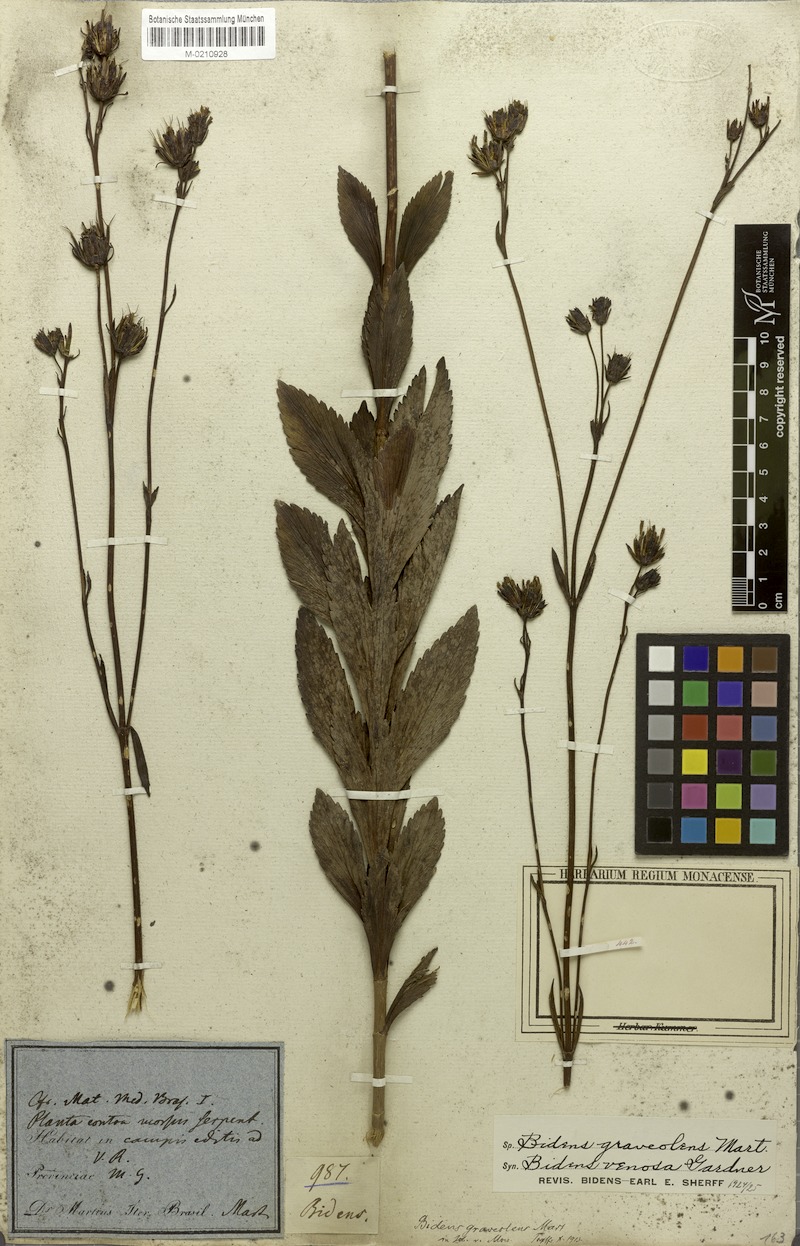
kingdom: Plantae
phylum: Tracheophyta
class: Magnoliopsida
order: Asterales
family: Asteraceae
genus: Bidens
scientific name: Bidens graveolens
